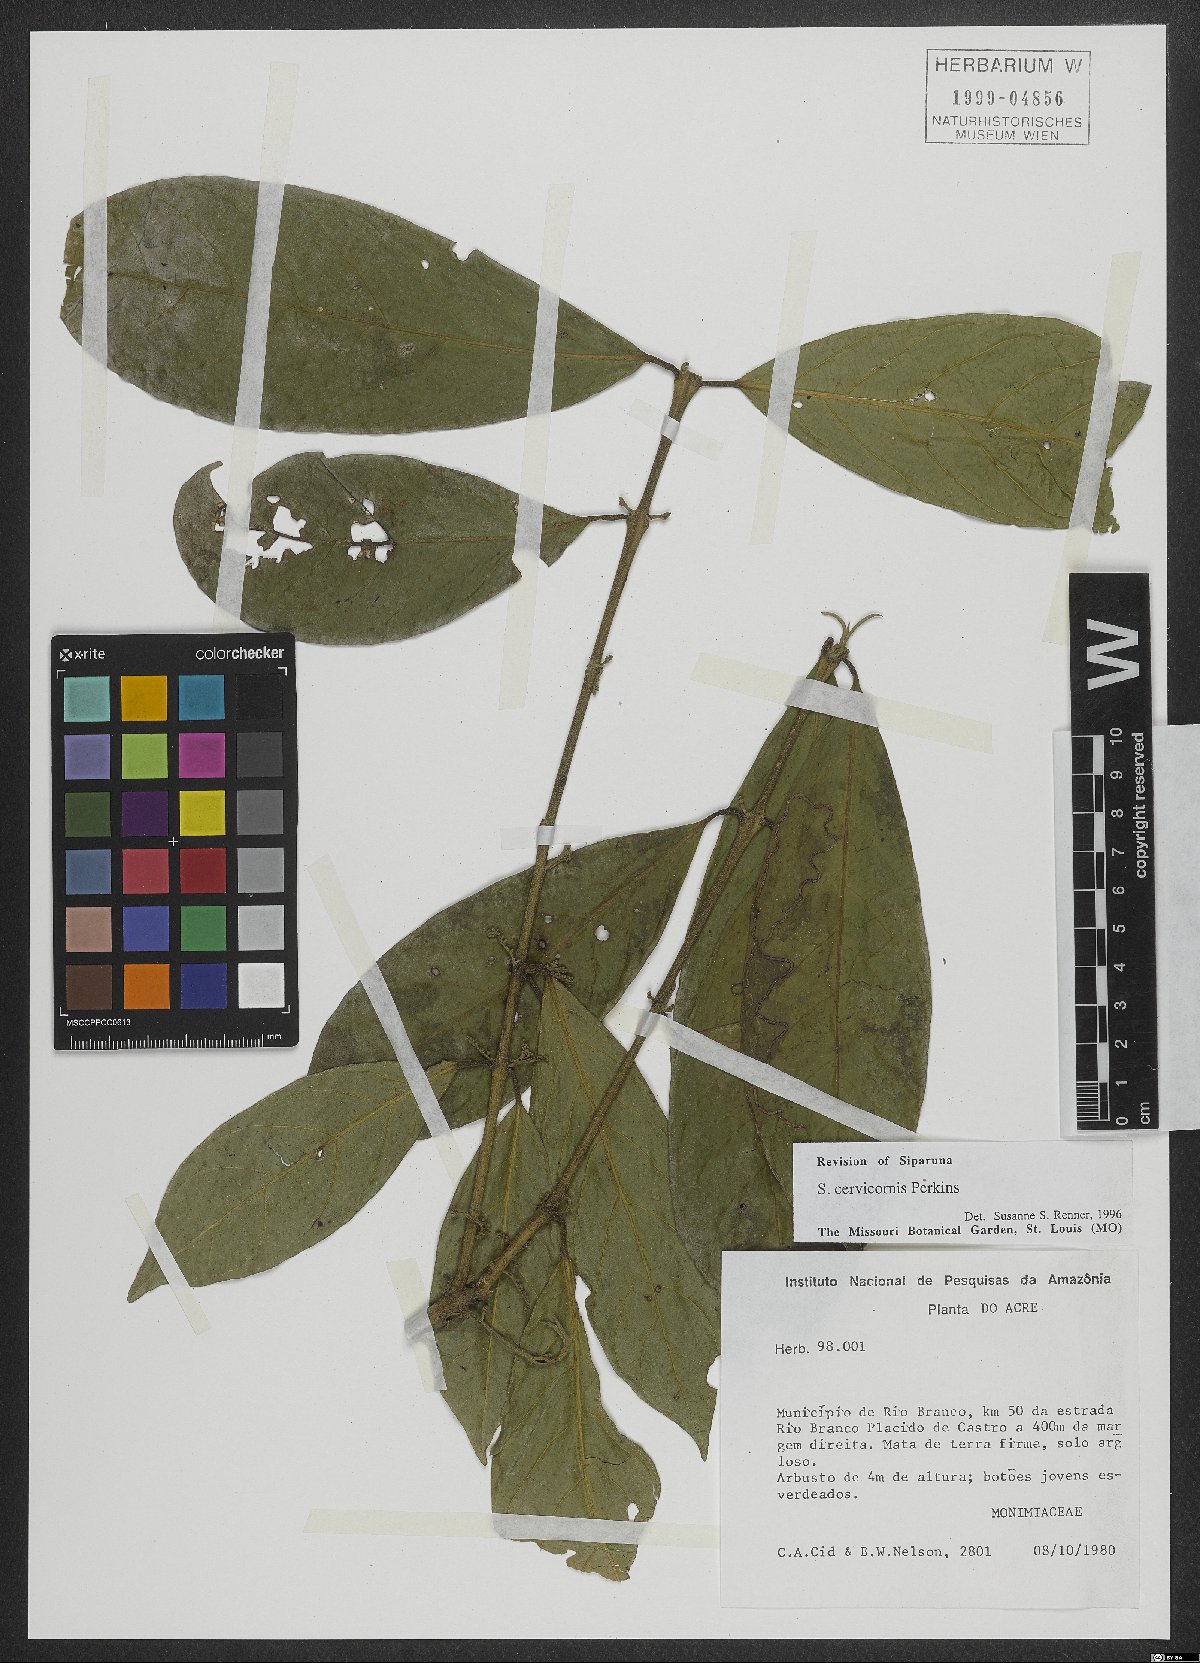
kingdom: Plantae
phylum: Tracheophyta
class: Magnoliopsida
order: Laurales
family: Siparunaceae
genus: Siparuna
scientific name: Siparuna cuspidata
